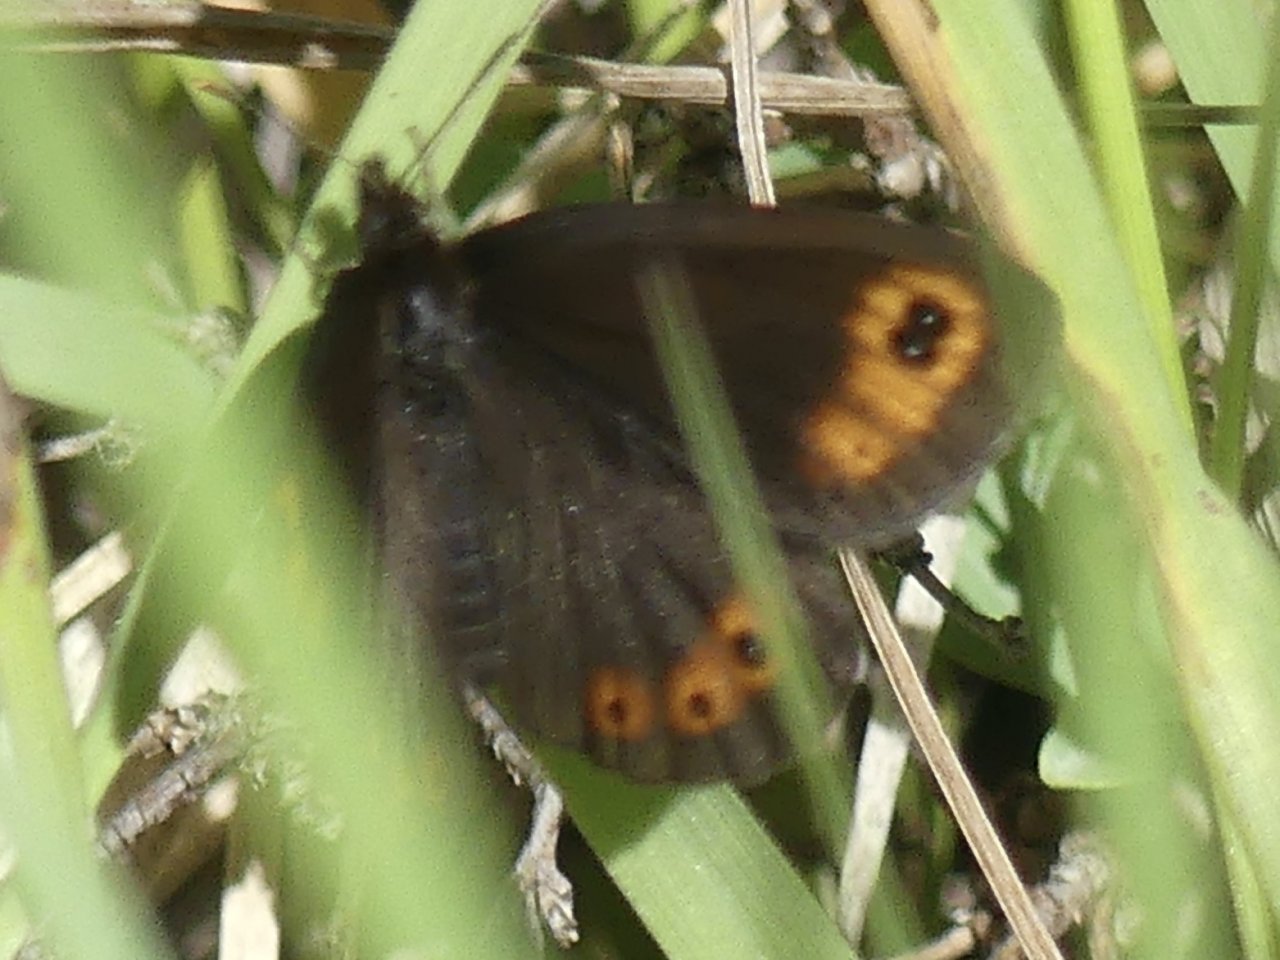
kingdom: Animalia
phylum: Arthropoda
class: Insecta
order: Lepidoptera
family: Nymphalidae
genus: Erebia
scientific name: Erebia epipsodea
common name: Common Alpine
